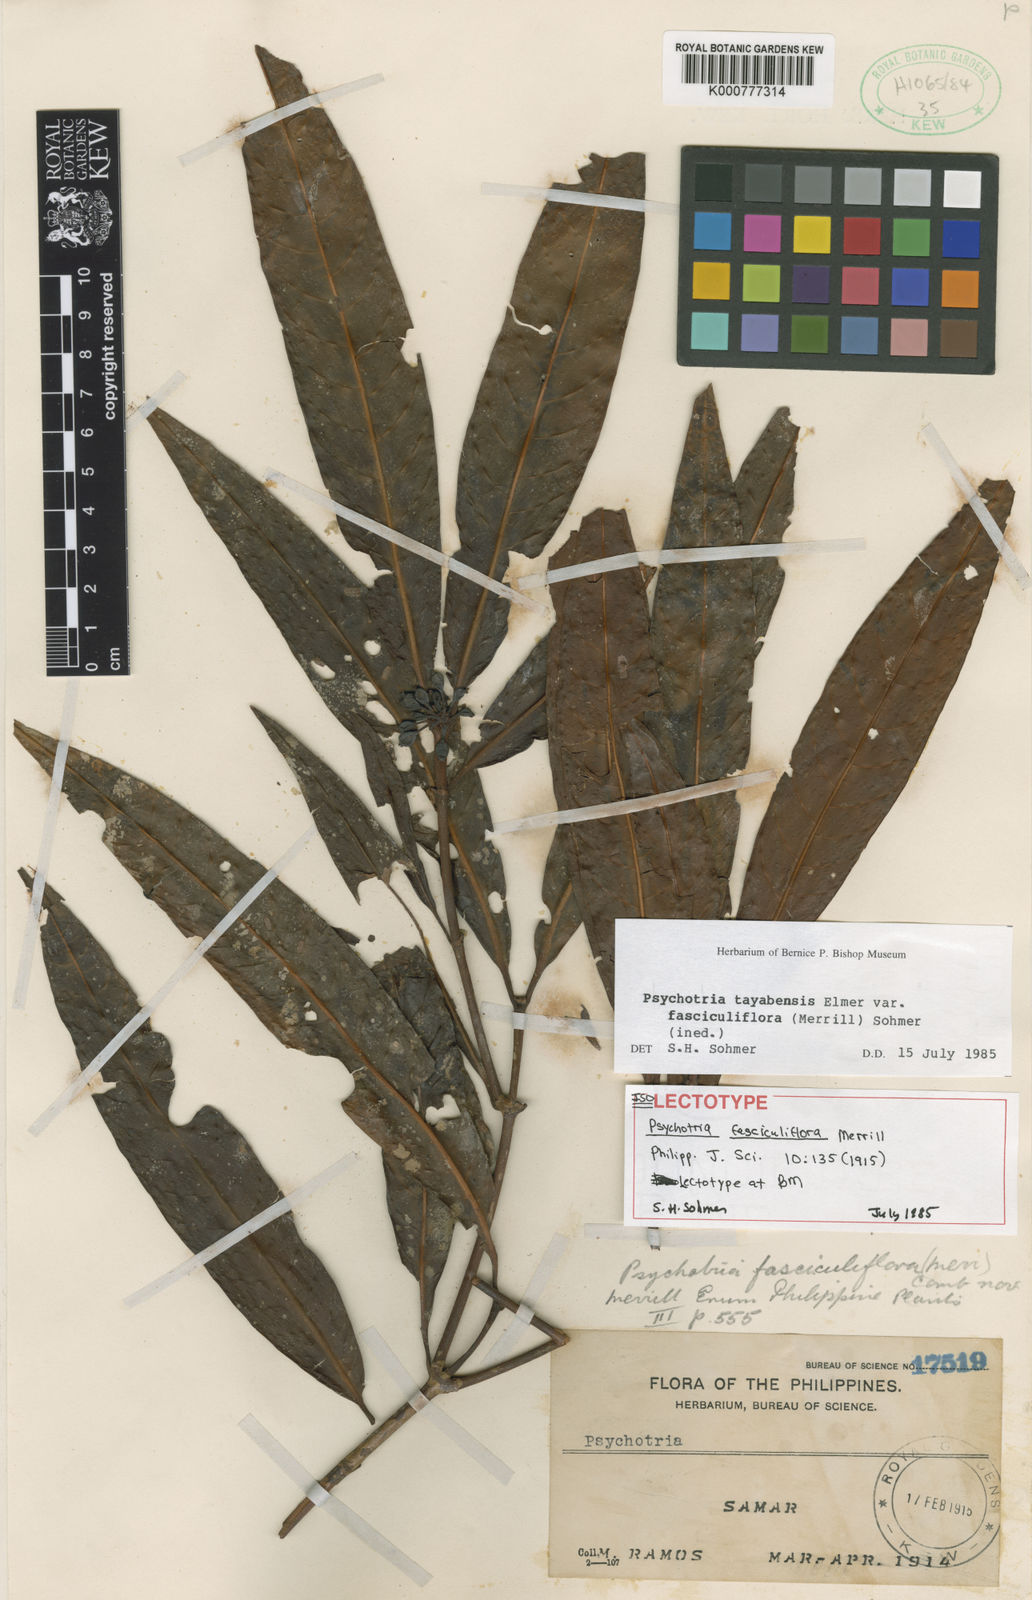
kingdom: Plantae
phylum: Tracheophyta
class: Magnoliopsida
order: Gentianales
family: Rubiaceae
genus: Psychotria
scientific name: Psychotria tayabensis
